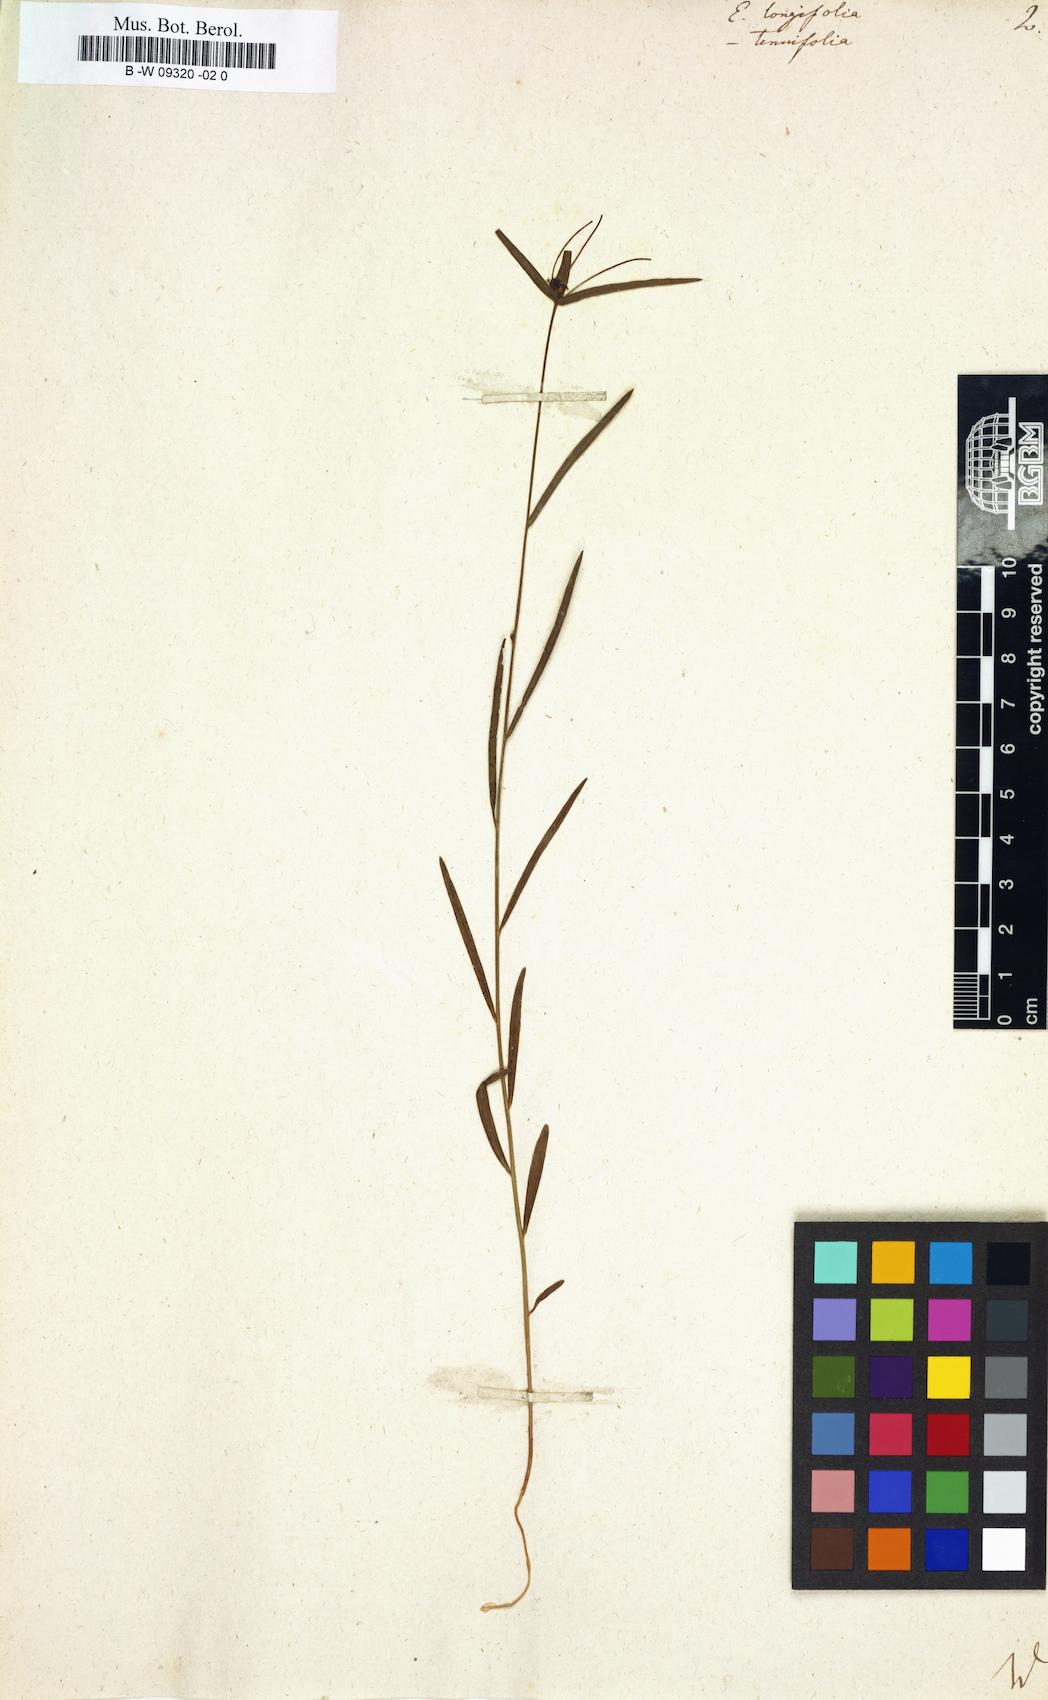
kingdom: Plantae
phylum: Tracheophyta
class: Magnoliopsida
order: Malpighiales
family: Euphorbiaceae
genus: Euphorbia
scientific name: Euphorbia mellifera
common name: Canary spurge
